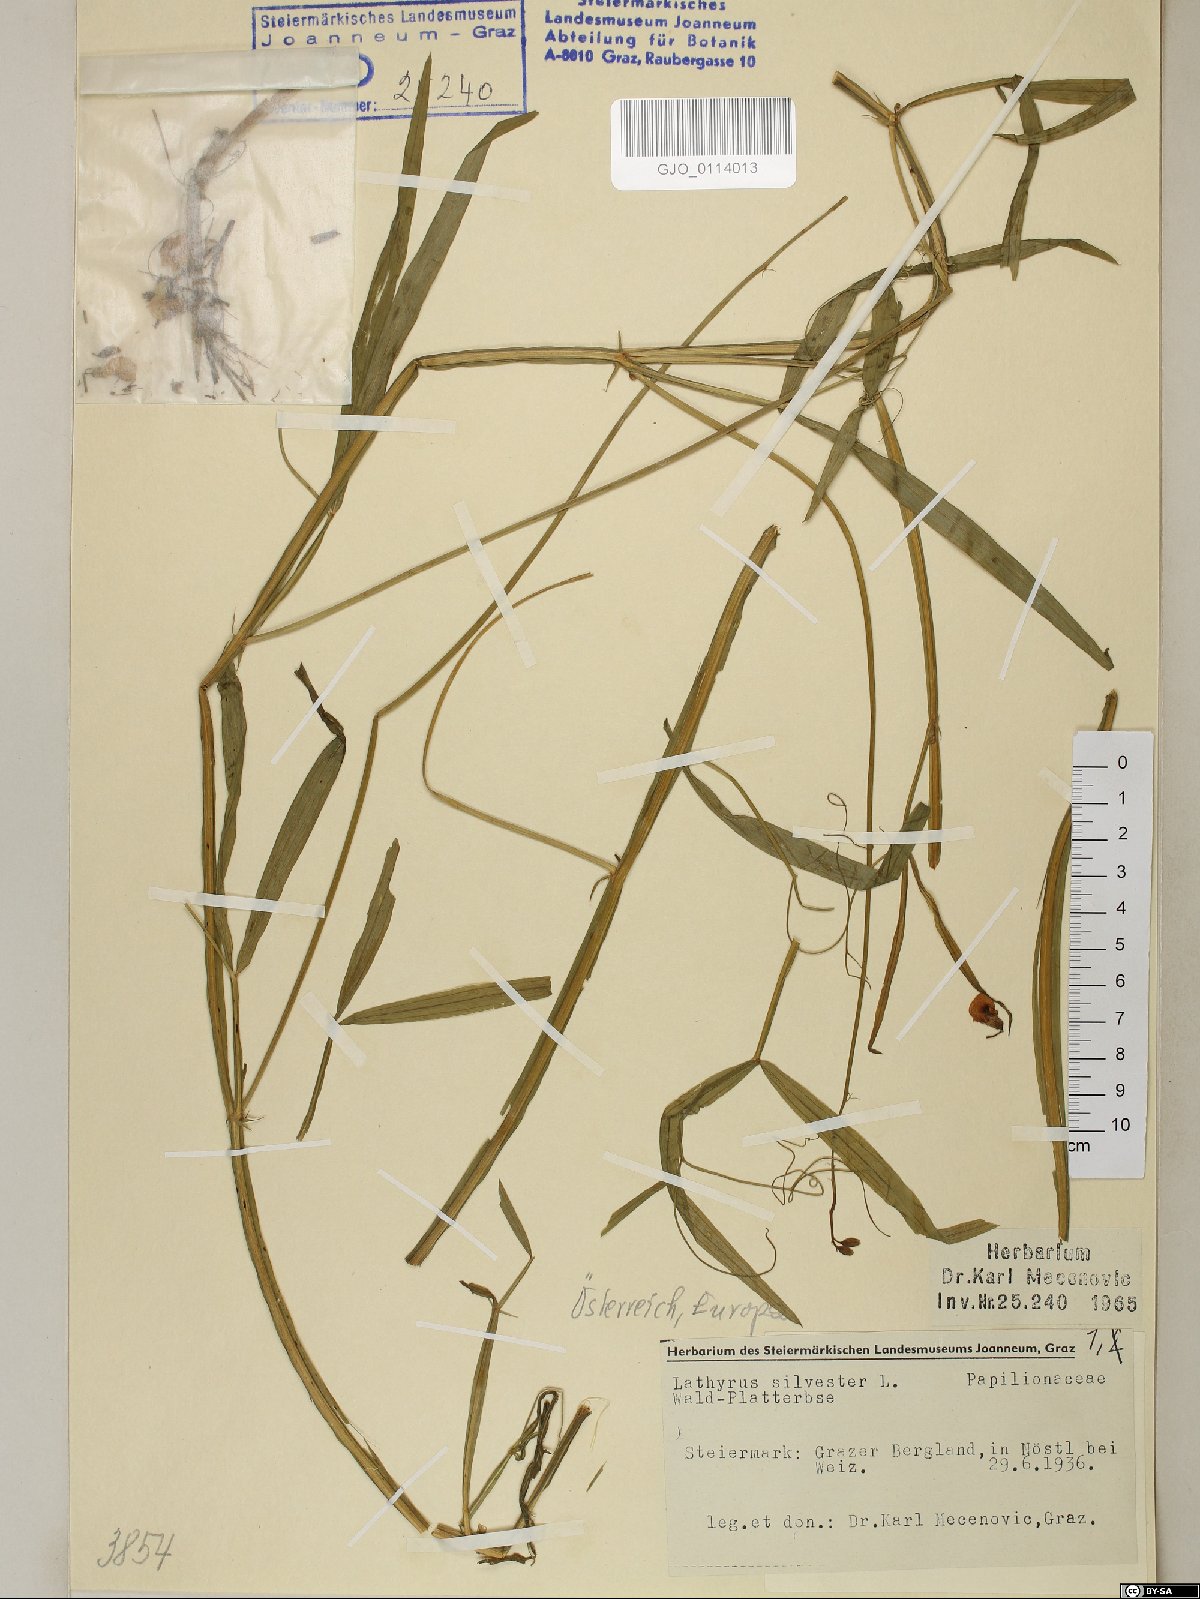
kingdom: Plantae
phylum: Tracheophyta
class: Magnoliopsida
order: Fabales
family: Fabaceae
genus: Lathyrus
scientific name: Lathyrus sylvestris
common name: Flat pea
